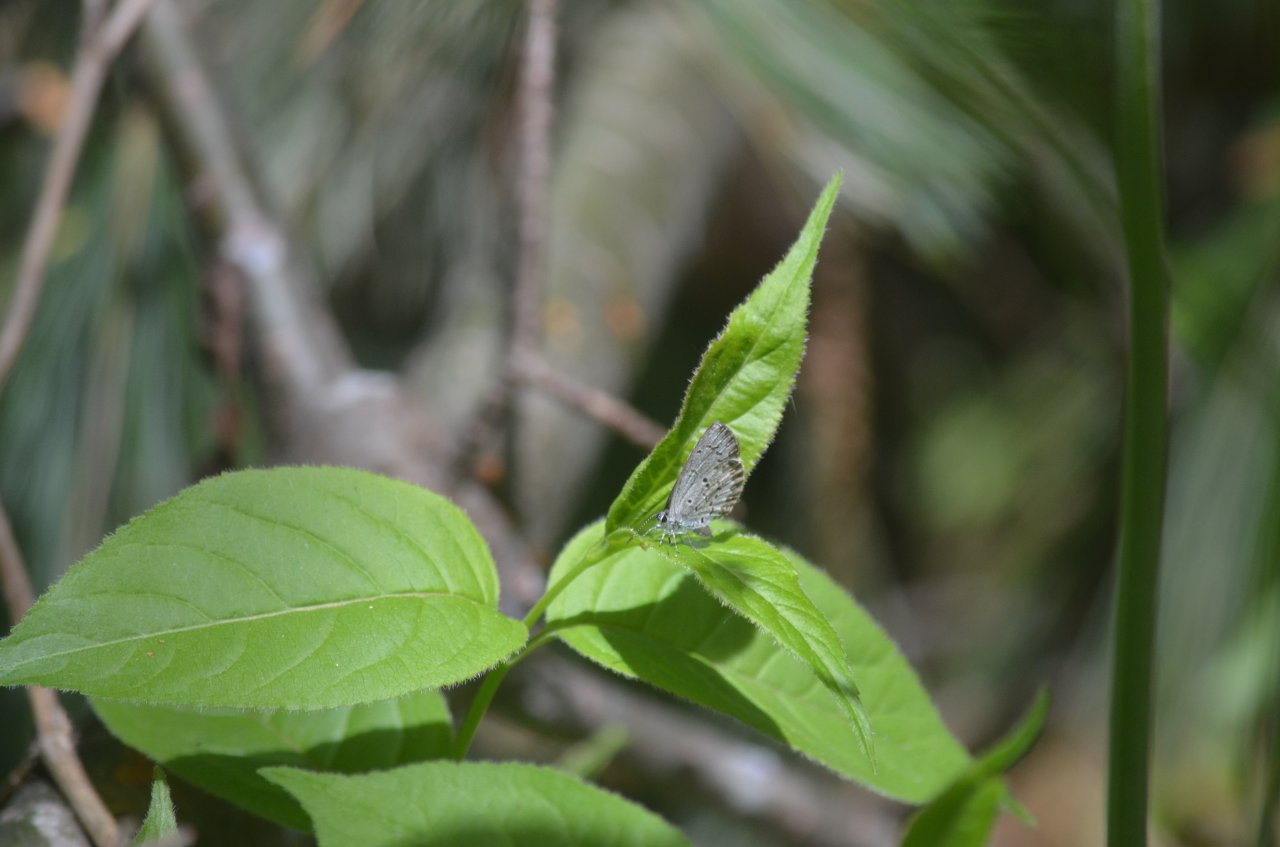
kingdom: Animalia
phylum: Arthropoda
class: Insecta
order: Lepidoptera
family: Lycaenidae
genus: Celastrina
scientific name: Celastrina lucia
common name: Northern Spring Azure
